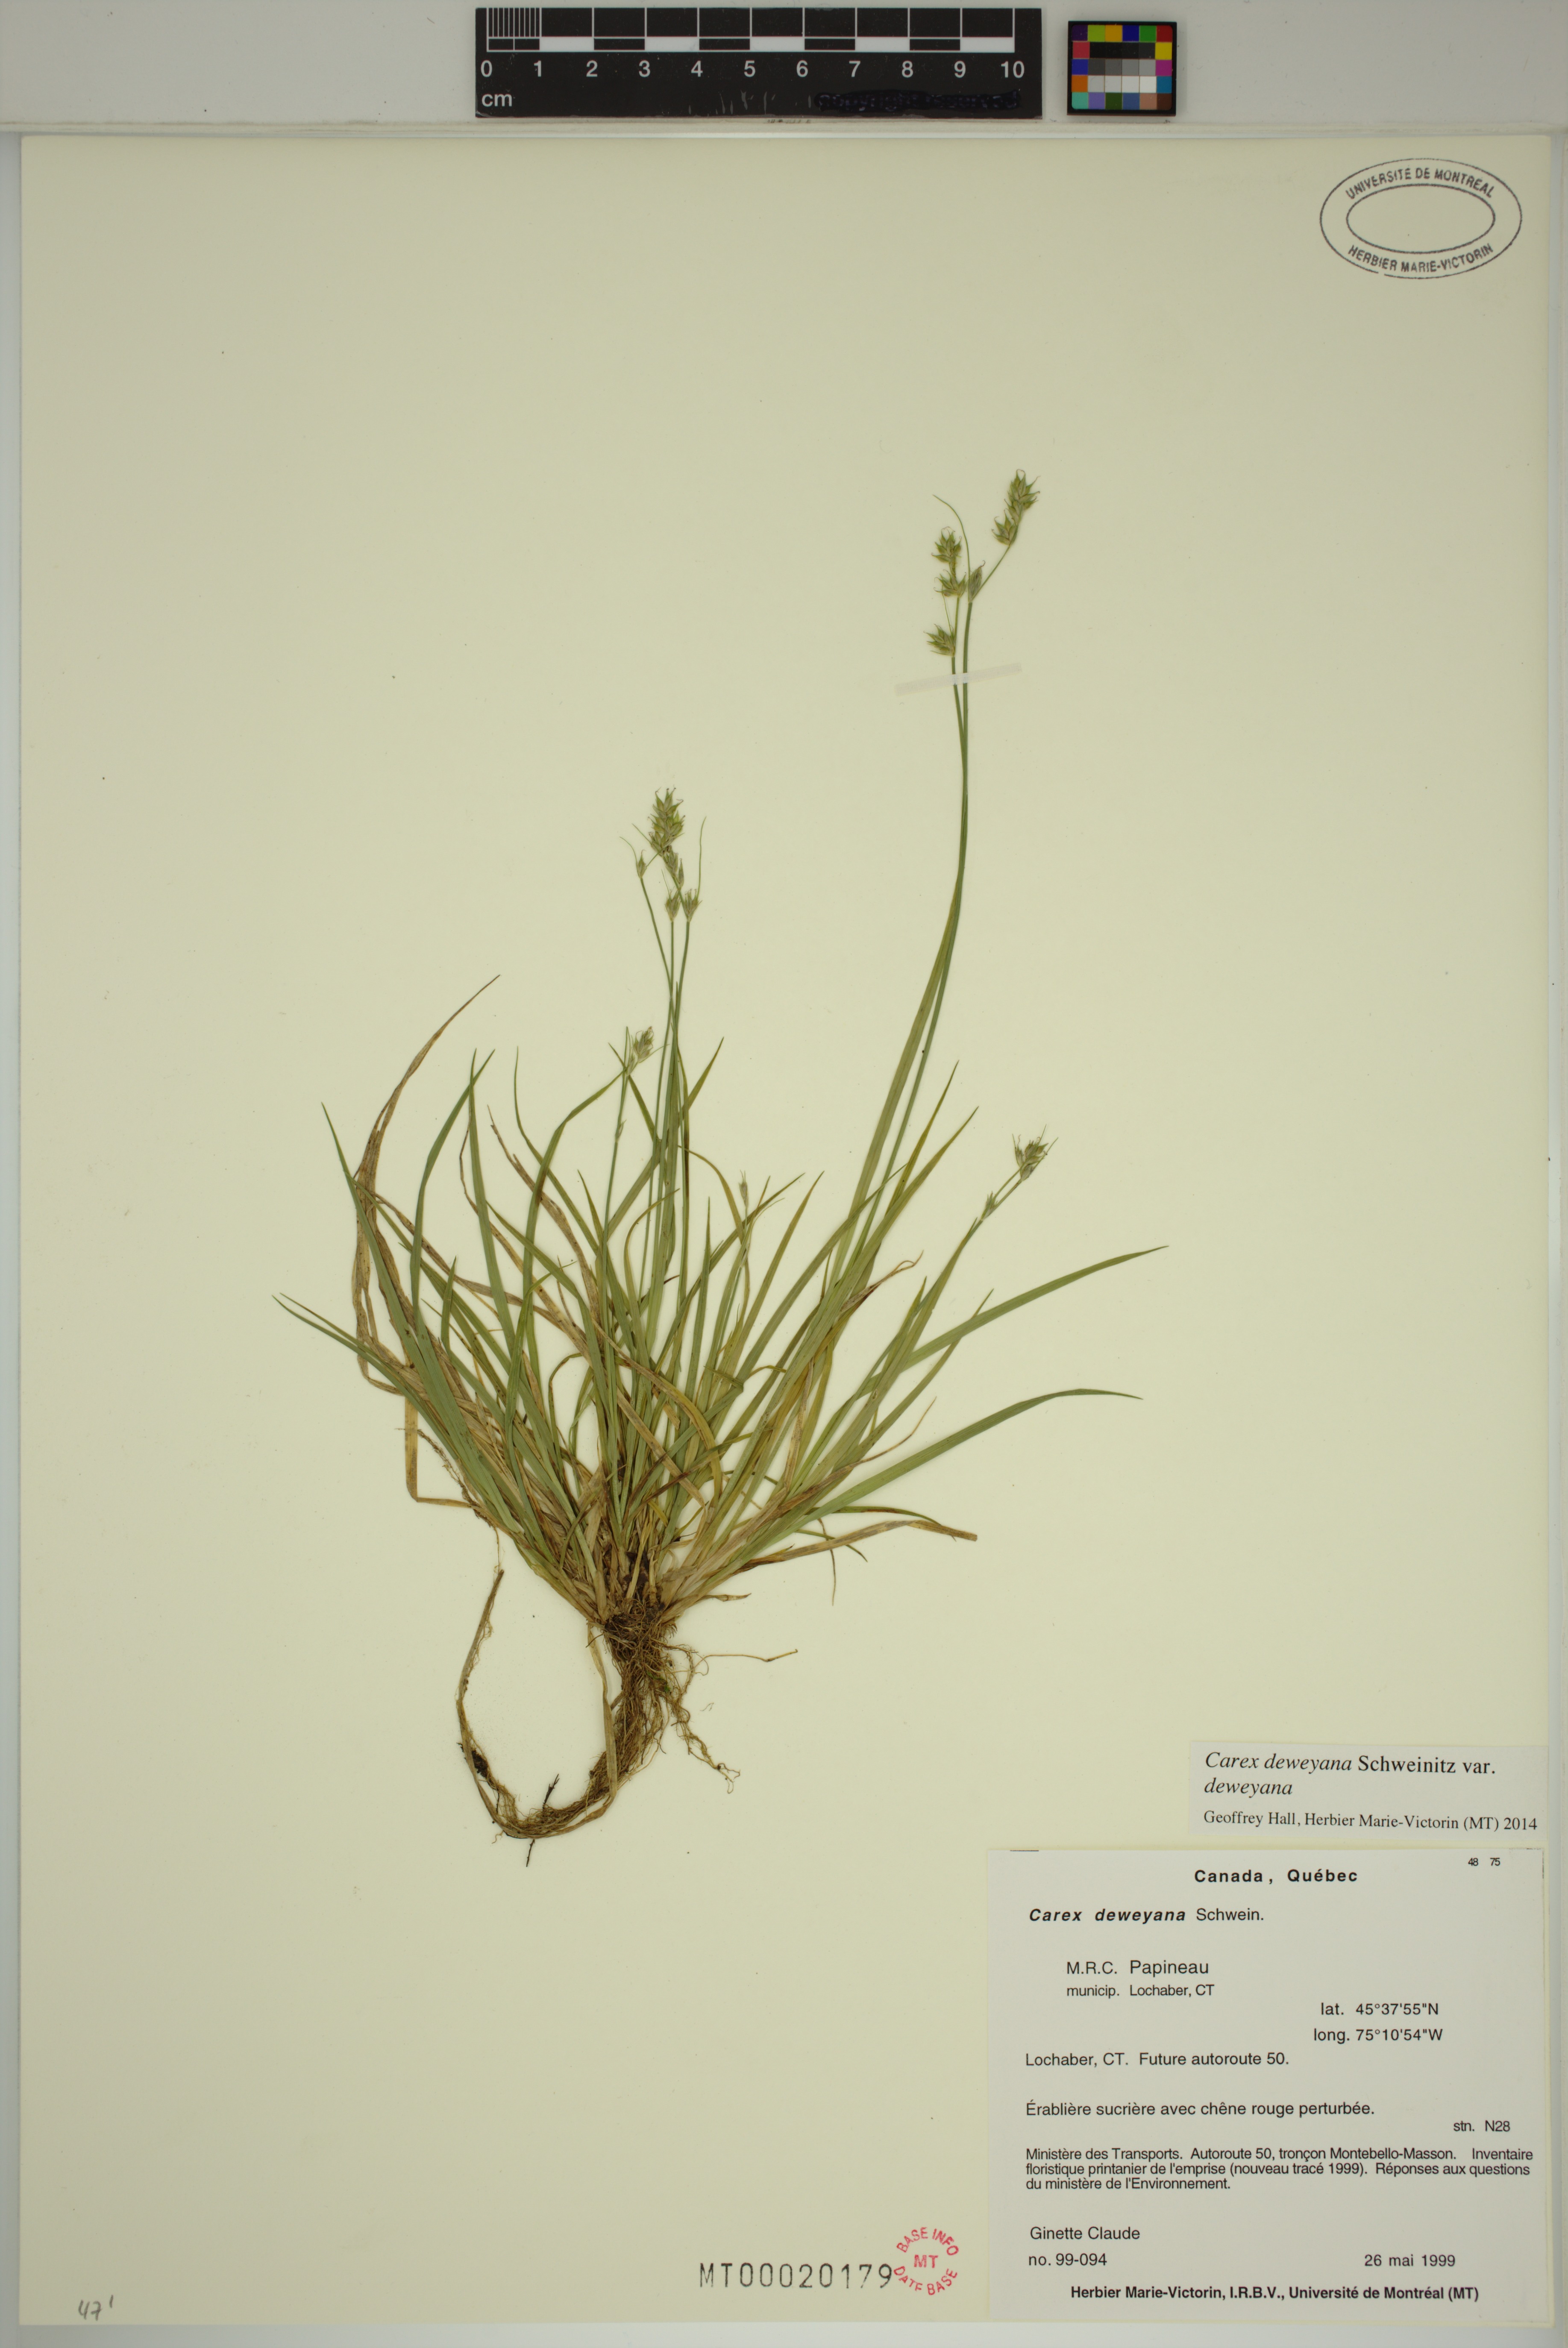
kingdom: Plantae
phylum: Tracheophyta
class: Liliopsida
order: Poales
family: Cyperaceae
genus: Carex
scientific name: Carex deweyana
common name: Dewey's sedge
